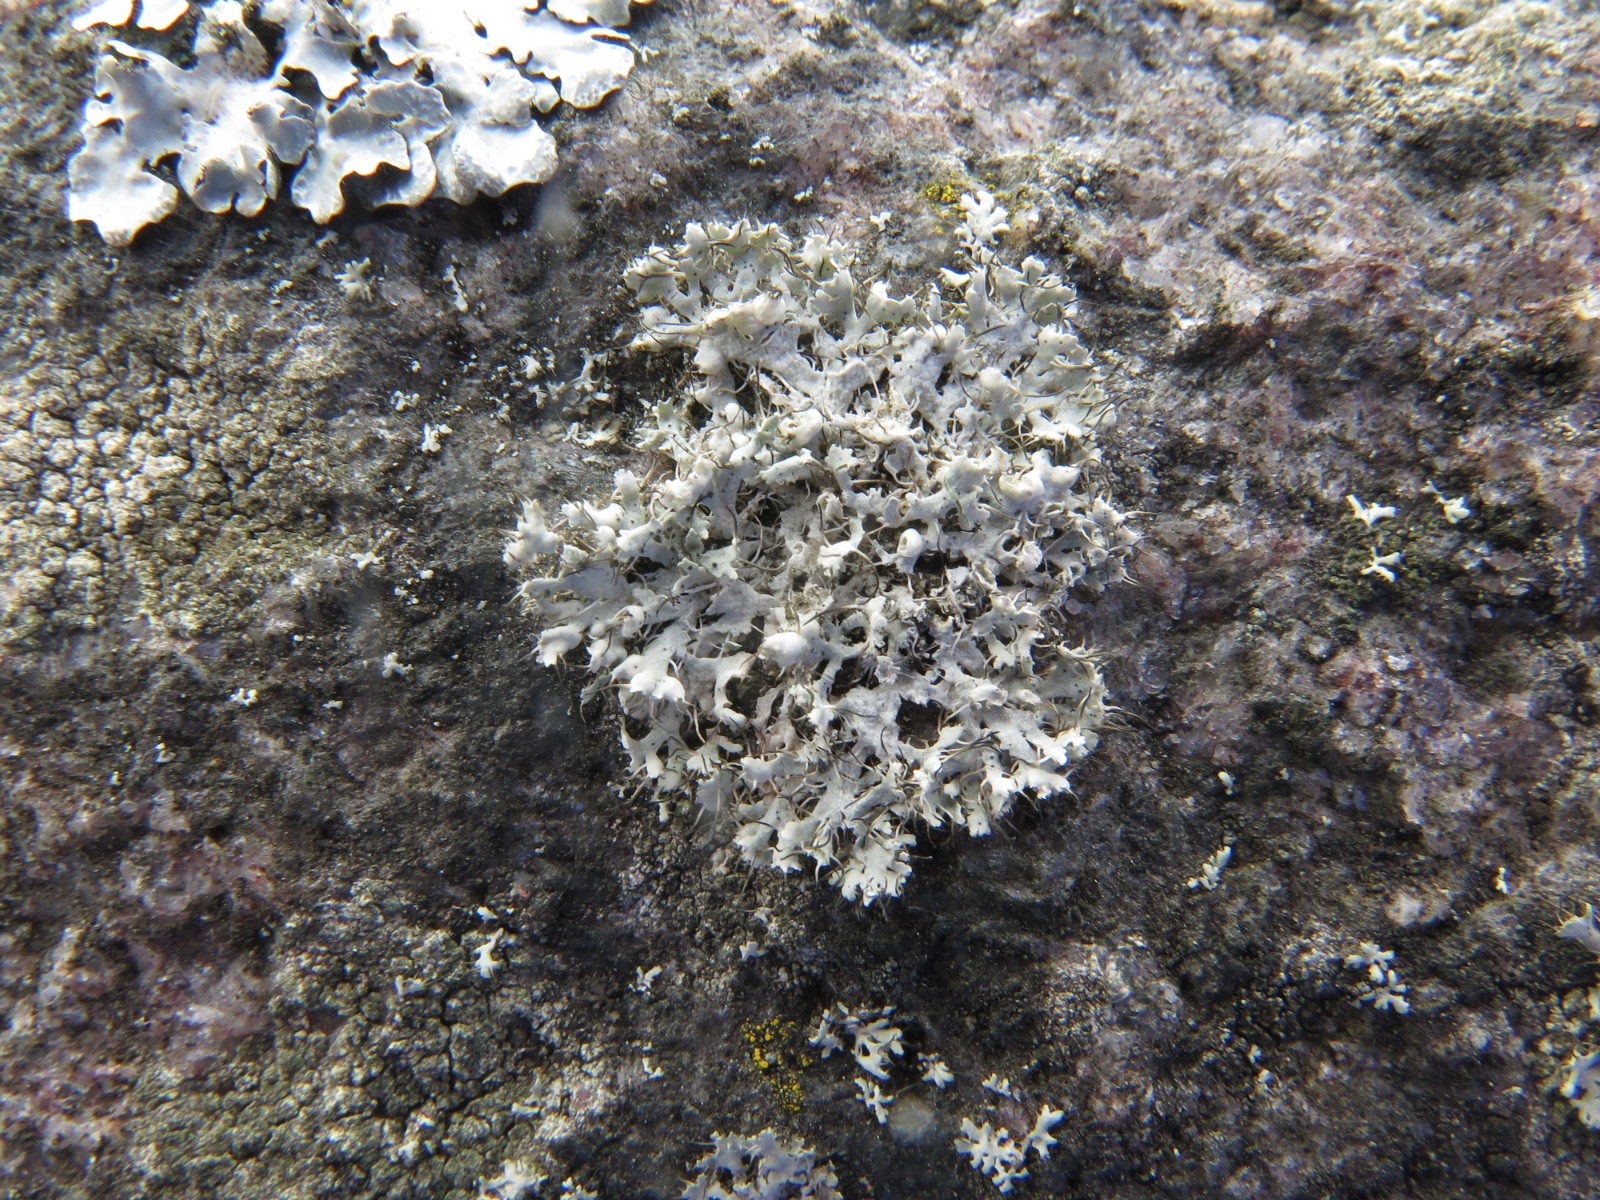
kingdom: Fungi
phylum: Ascomycota
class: Lecanoromycetes
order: Caliciales
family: Physciaceae
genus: Physcia
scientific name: Physcia adscendens
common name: hætte-rosetlav
